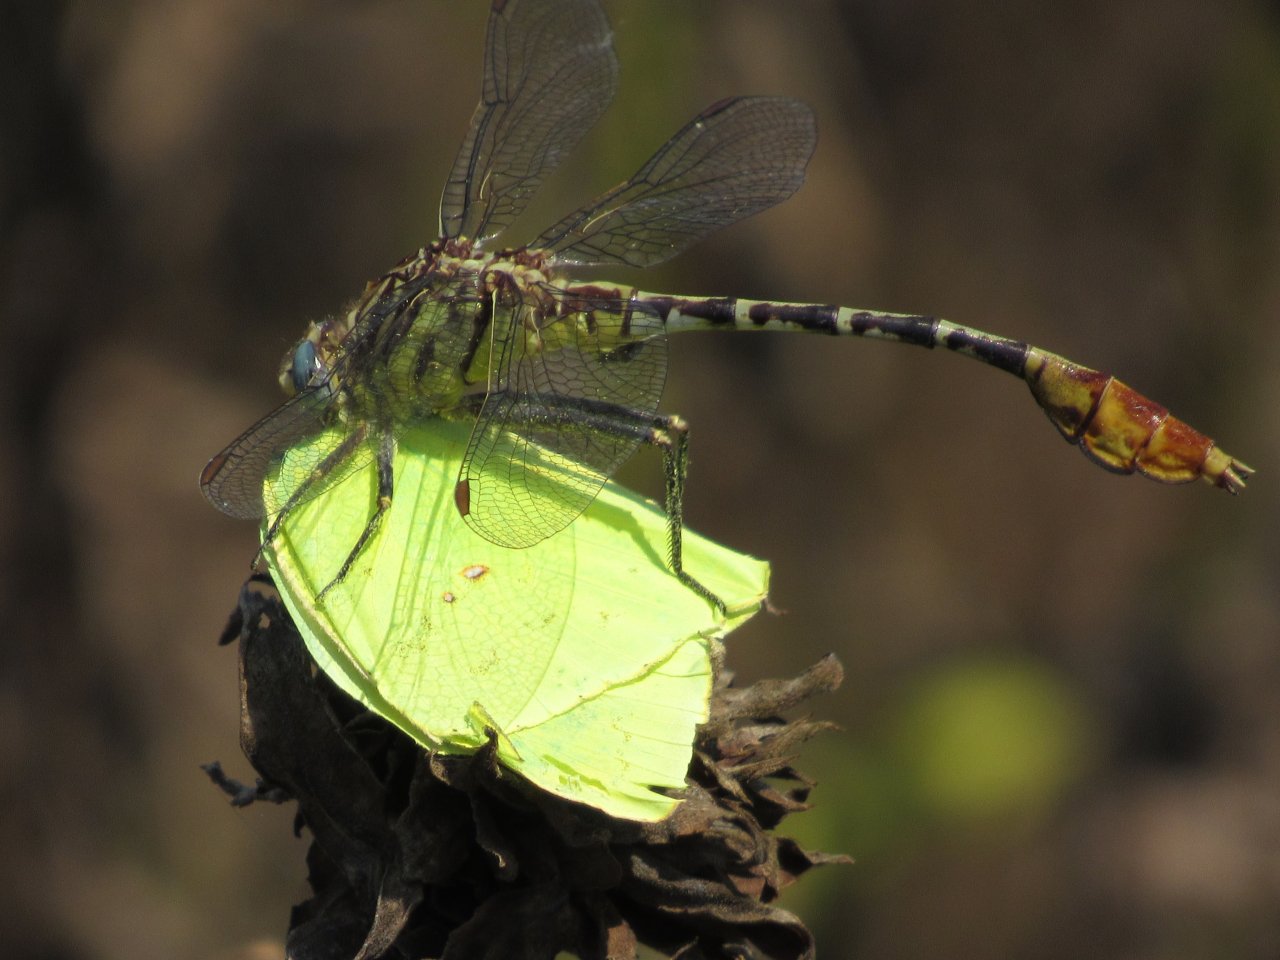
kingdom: Animalia
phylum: Arthropoda
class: Insecta
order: Lepidoptera
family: Pieridae
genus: Phoebis
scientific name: Phoebis sennae
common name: Cloudless Sulphur
